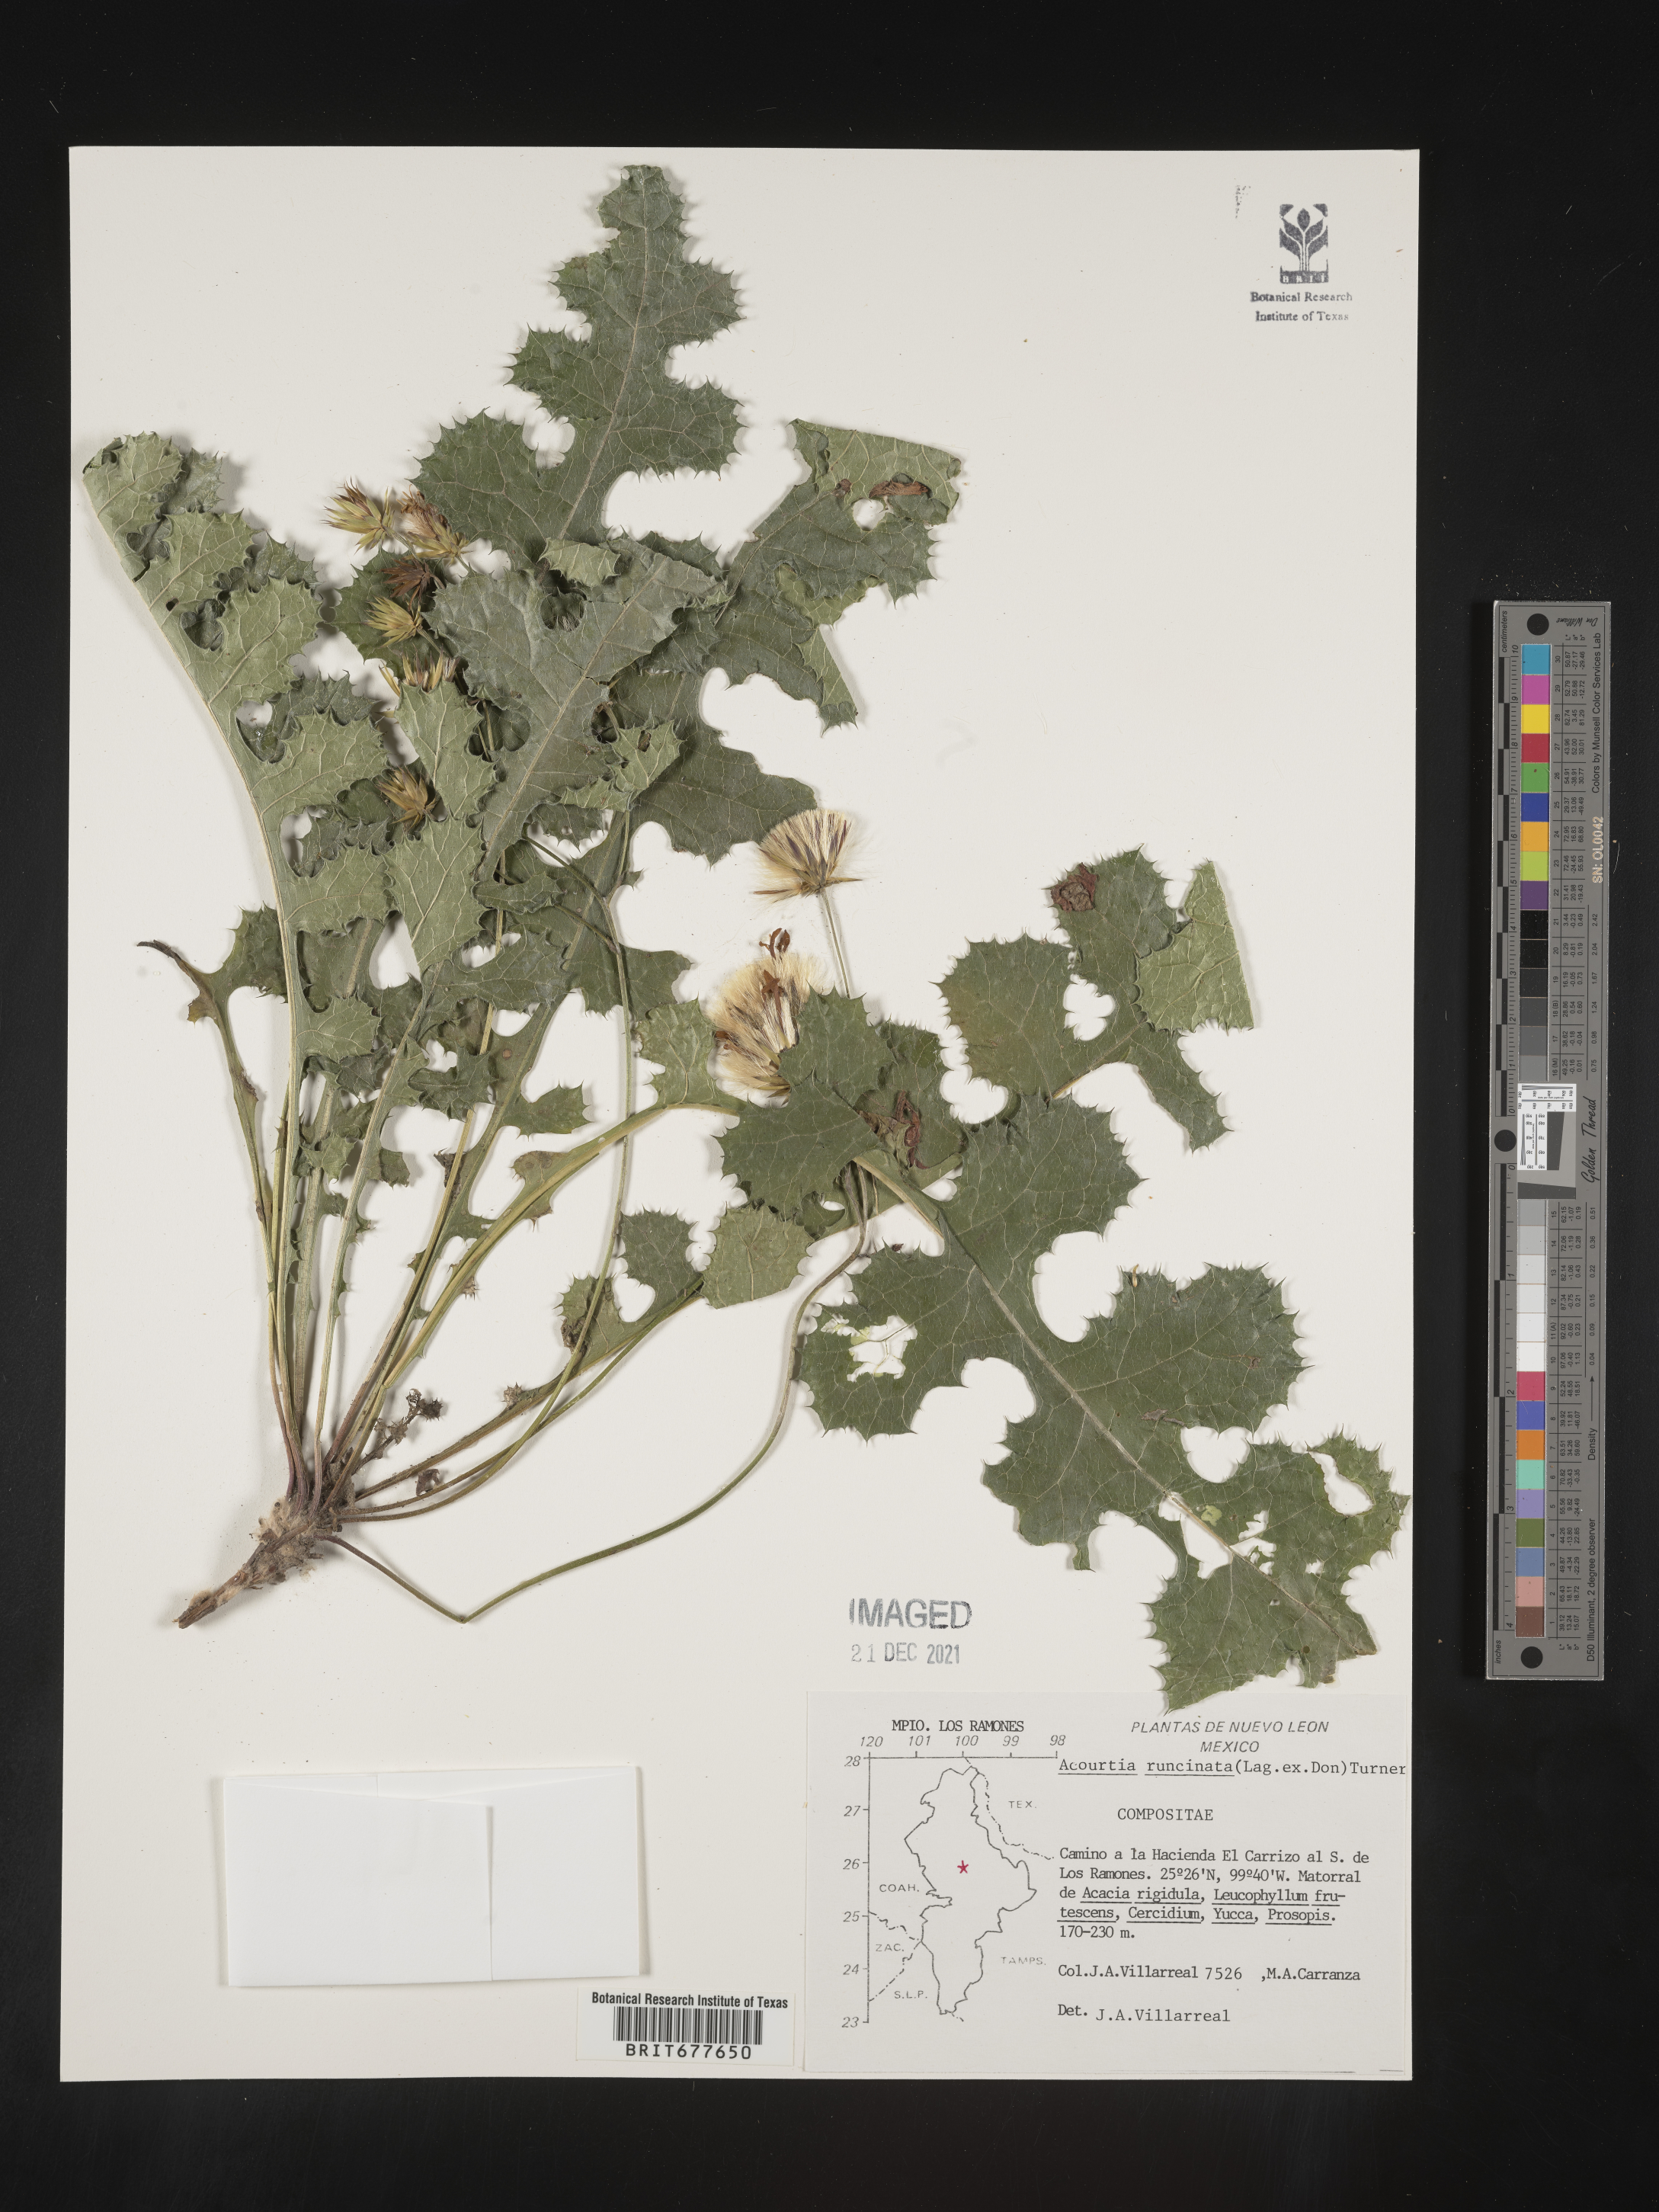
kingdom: Plantae
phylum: Tracheophyta
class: Magnoliopsida
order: Asterales
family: Asteraceae
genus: Acourtia
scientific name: Acourtia
